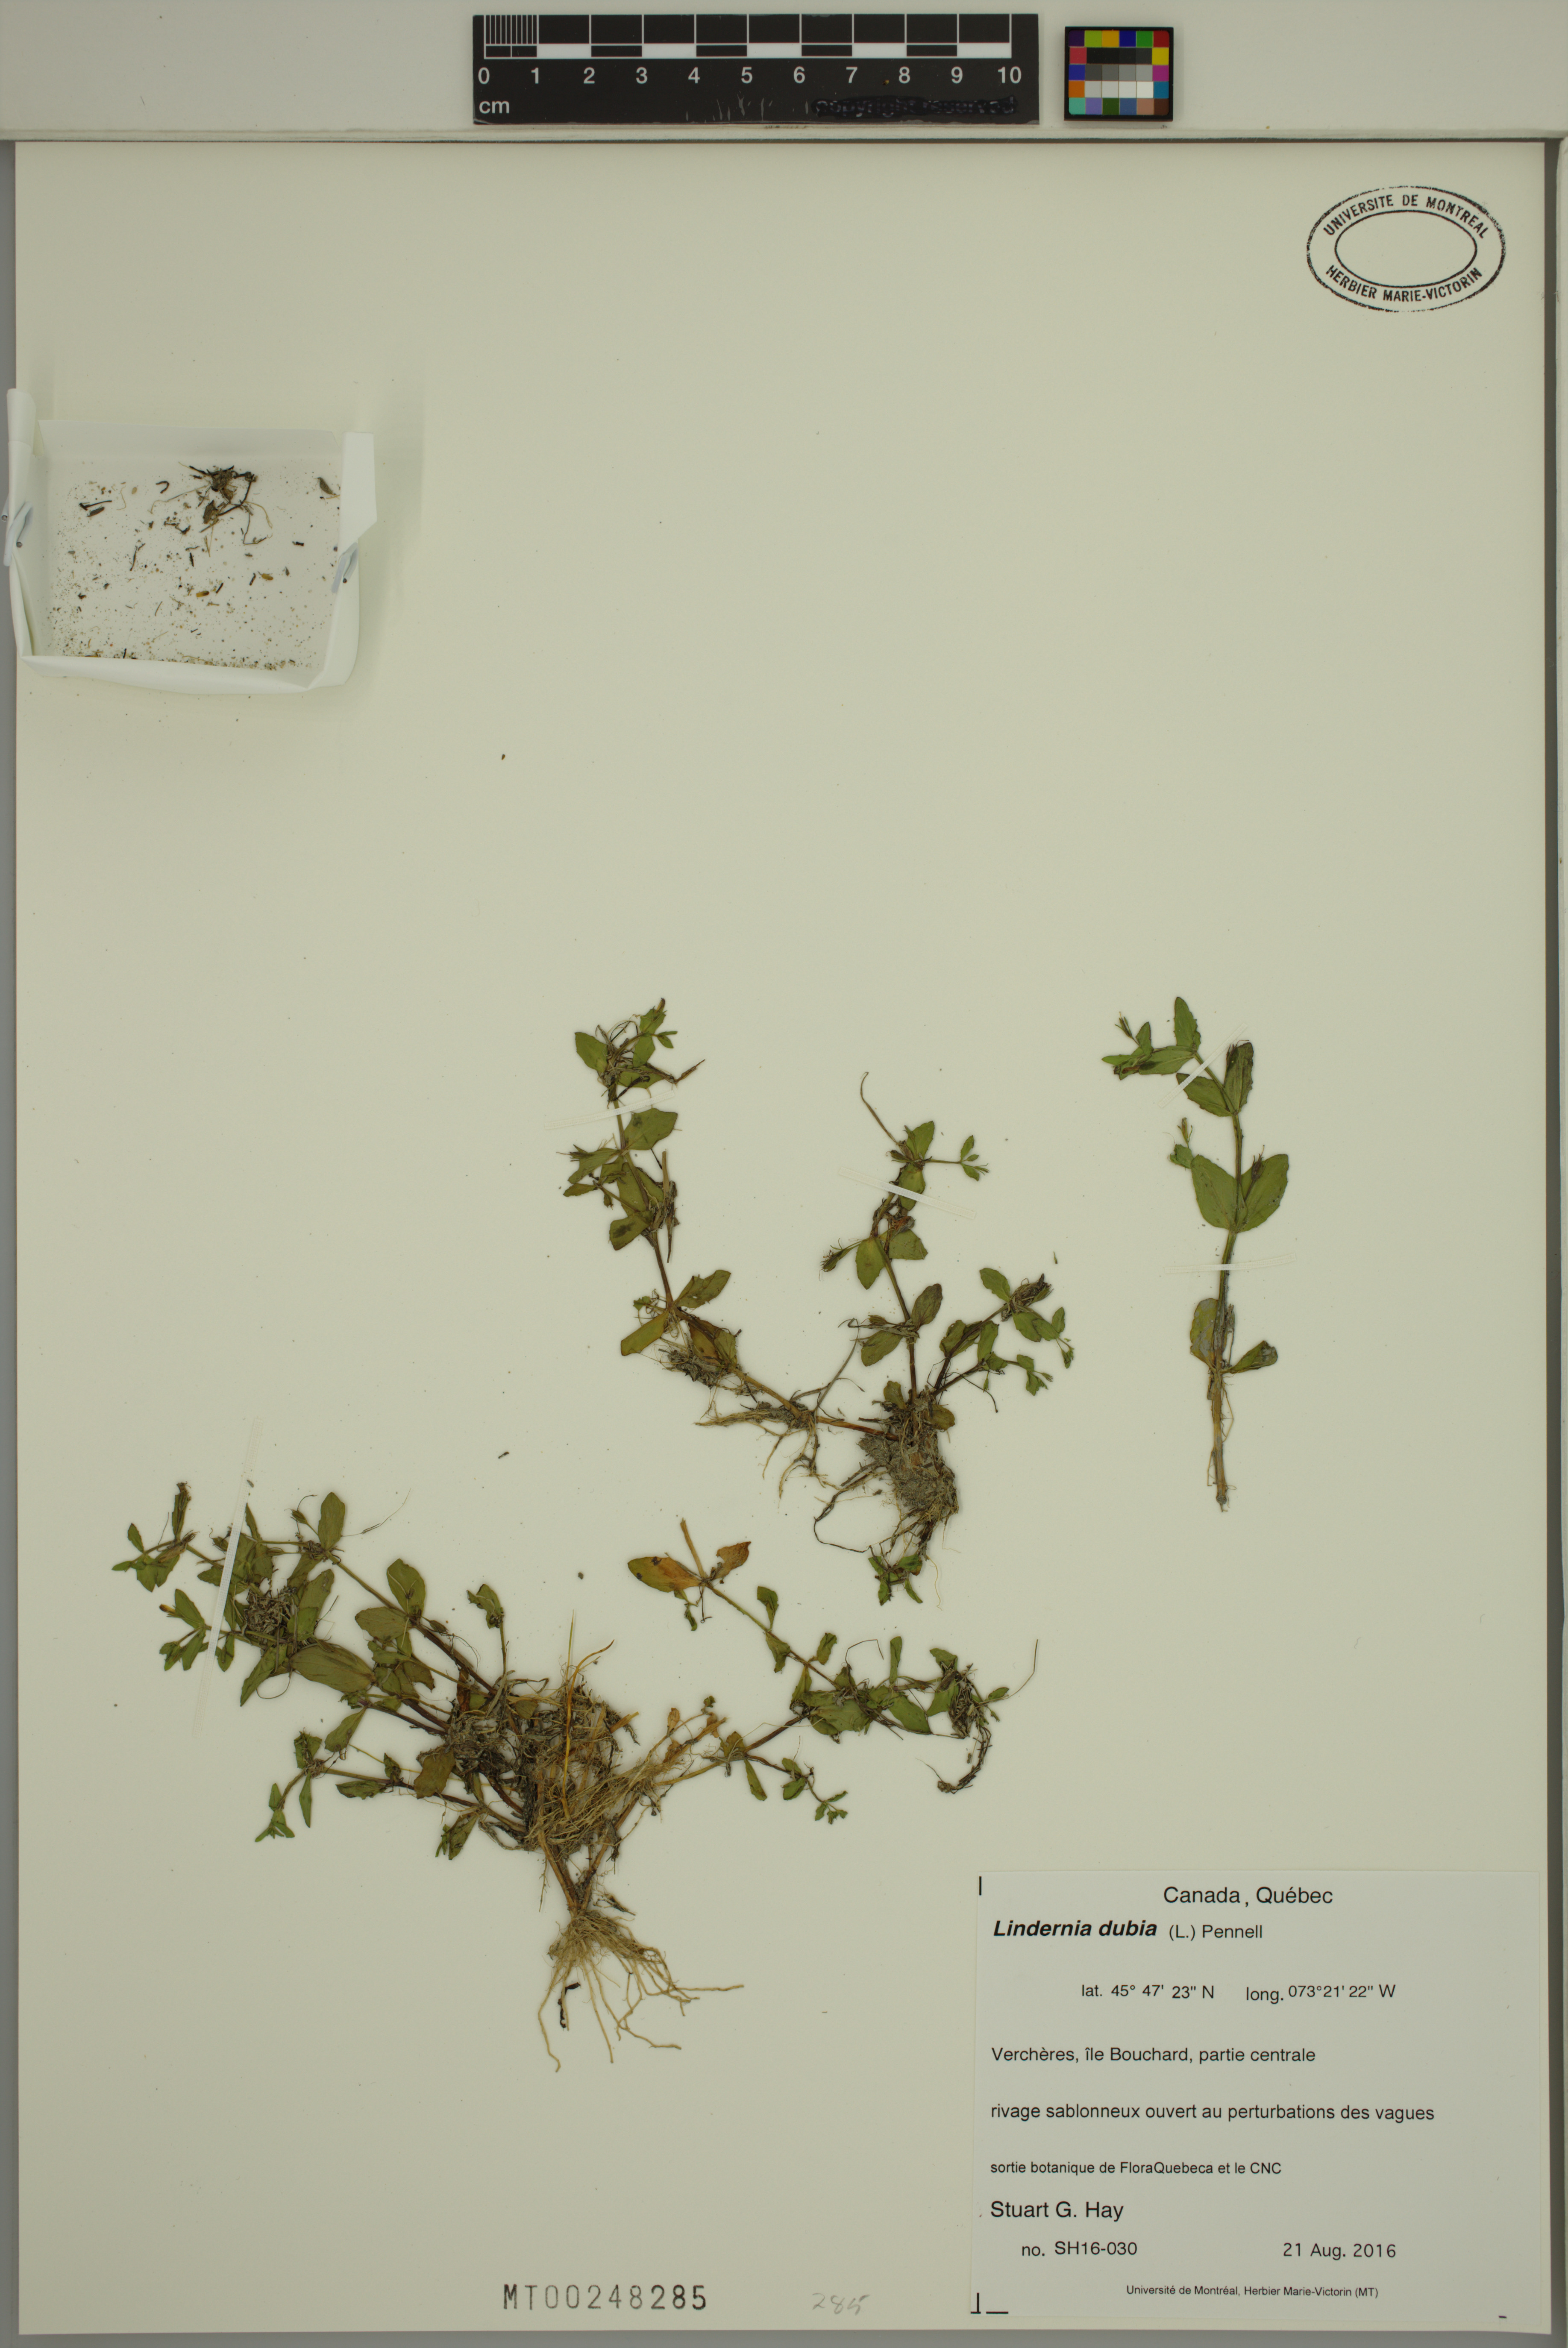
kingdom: Plantae
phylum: Tracheophyta
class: Magnoliopsida
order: Lamiales
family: Linderniaceae
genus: Lindernia
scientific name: Lindernia dubia
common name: Annual false pimpernel
